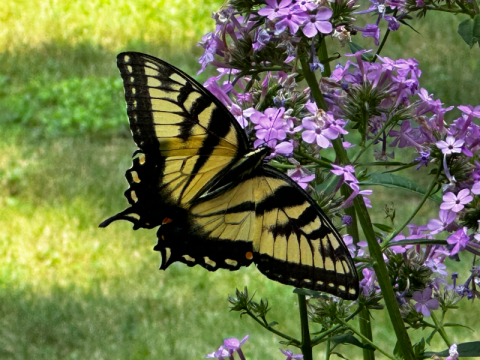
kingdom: Animalia
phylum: Arthropoda
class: Insecta
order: Lepidoptera
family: Papilionidae
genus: Pterourus
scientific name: Pterourus glaucus
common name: Eastern Tiger Swallowtail
